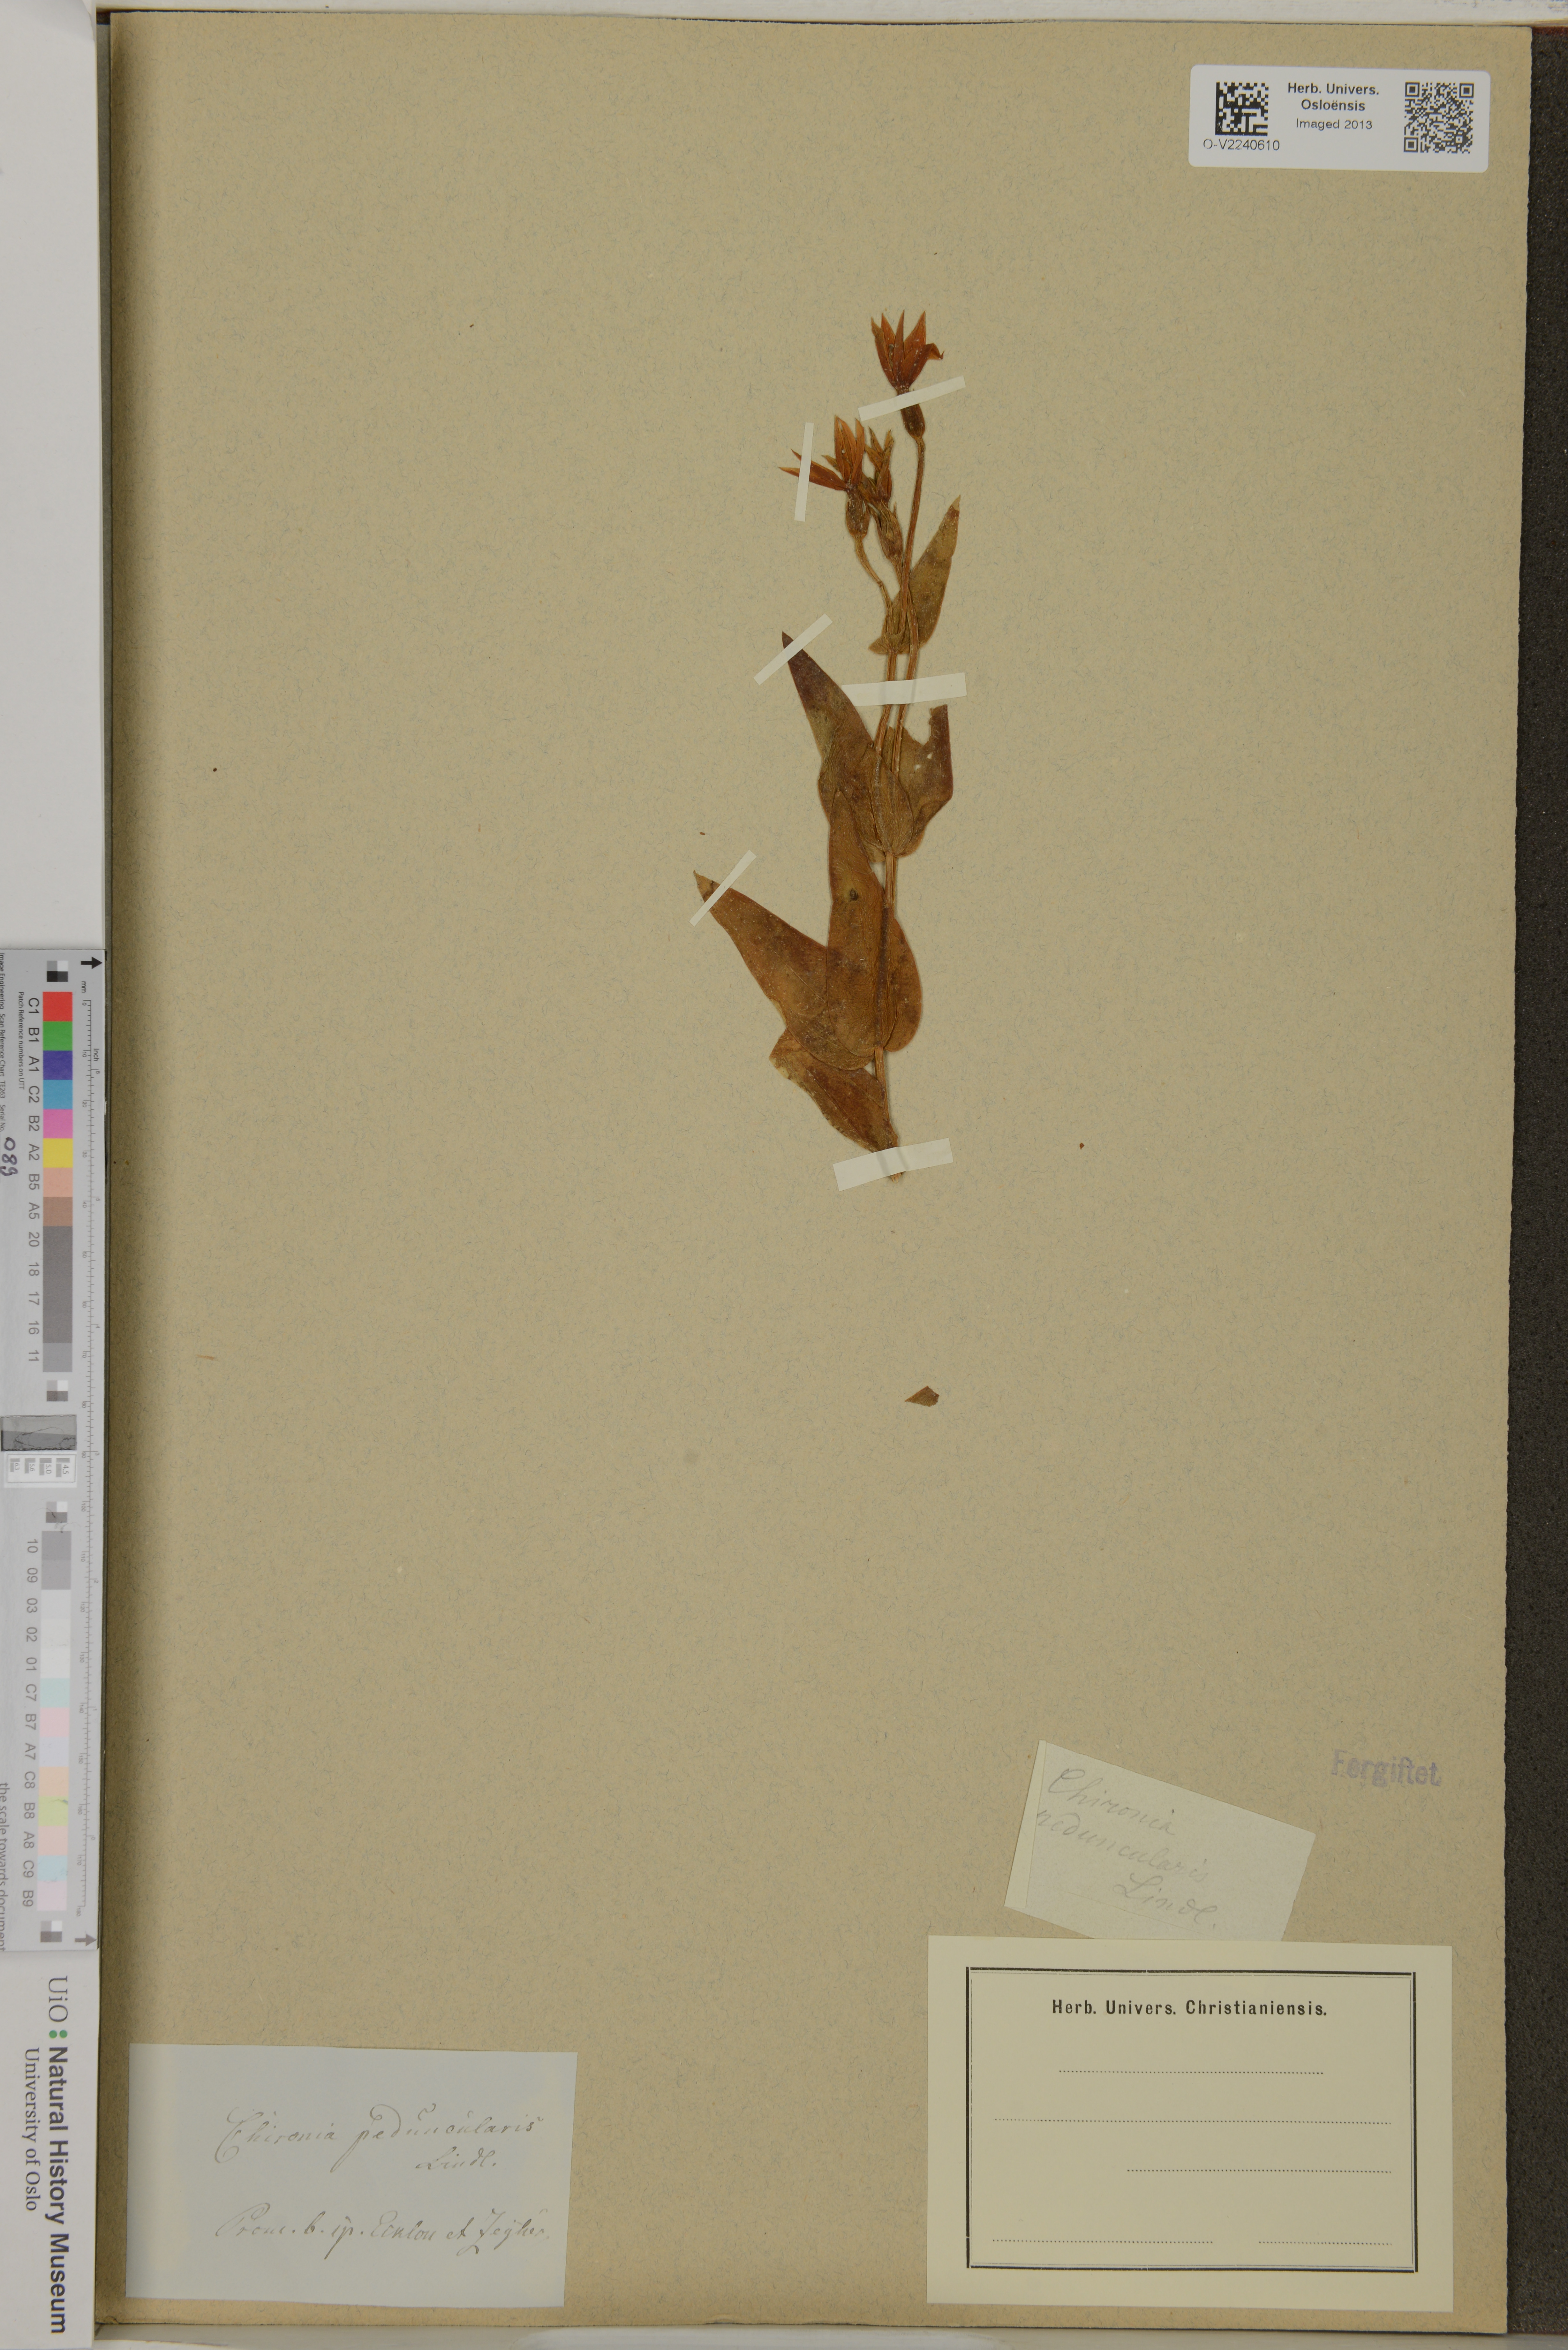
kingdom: Plantae
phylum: Tracheophyta
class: Magnoliopsida
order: Gentianales
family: Gentianaceae
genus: Chironia
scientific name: Chironia peduncularis
